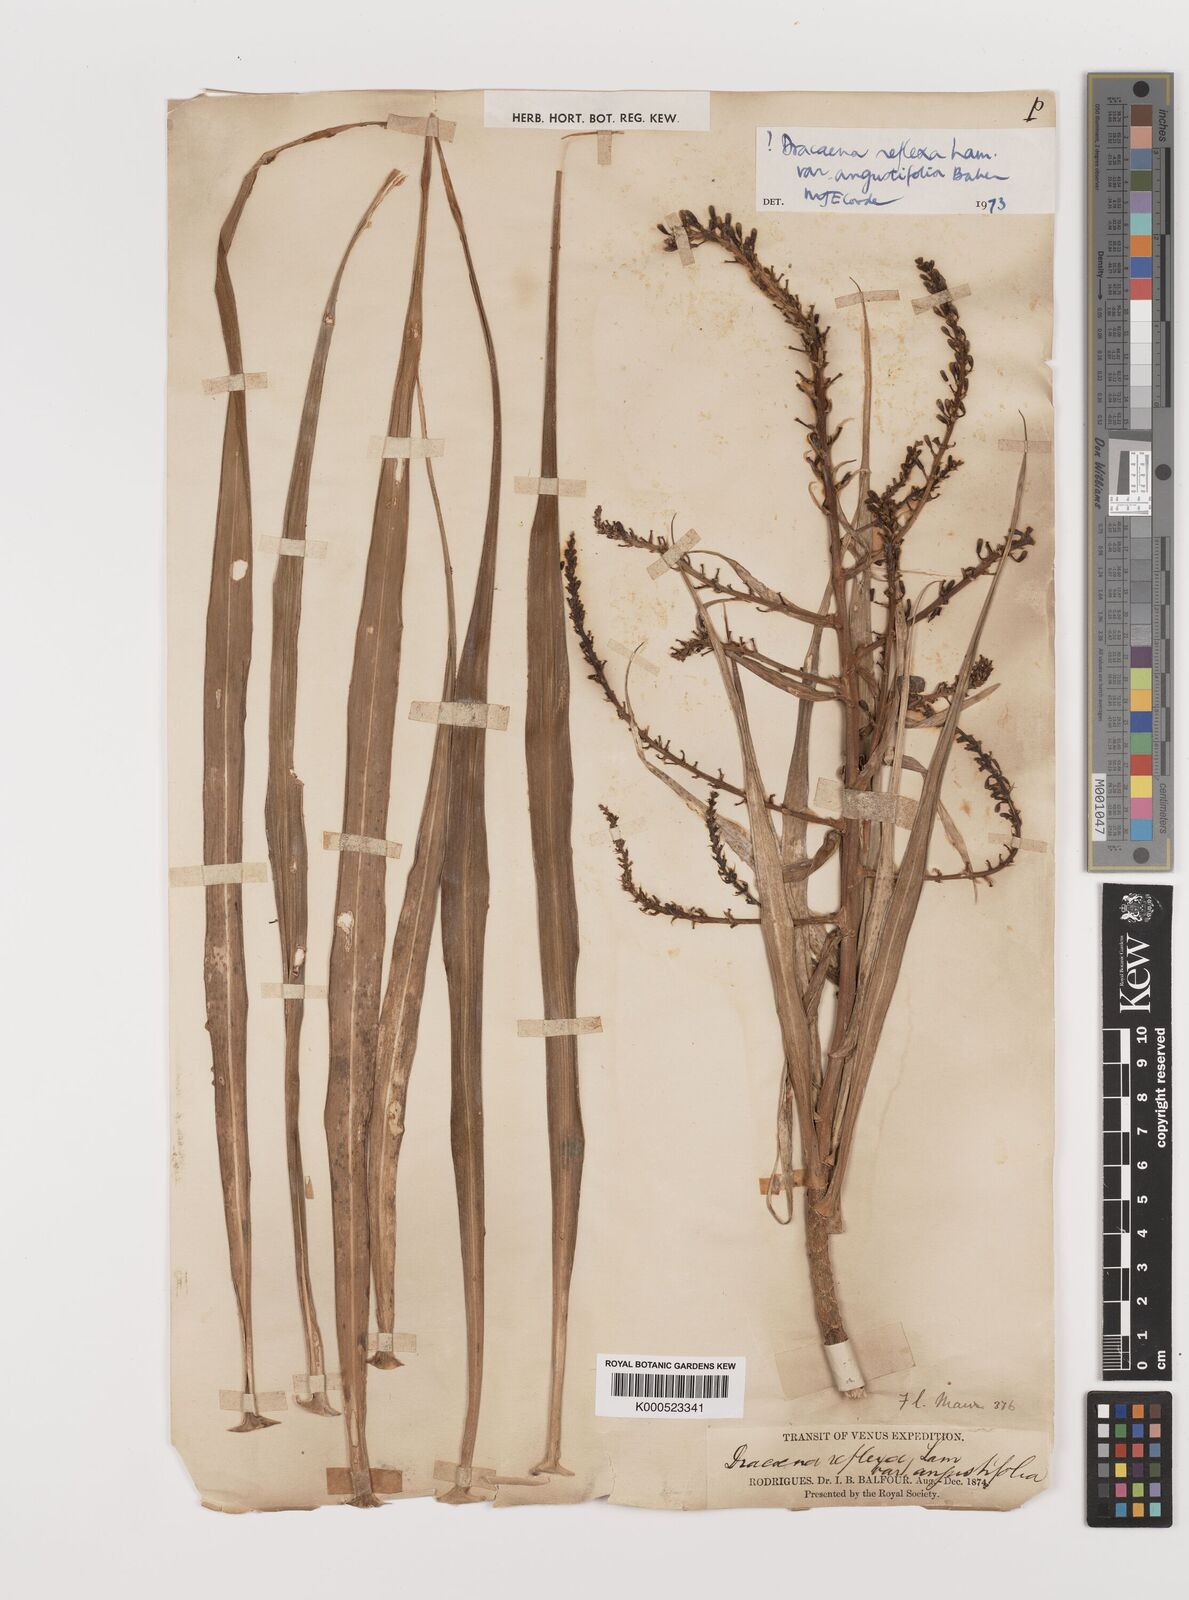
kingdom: Plantae
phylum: Tracheophyta
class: Liliopsida
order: Asparagales
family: Asparagaceae
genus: Dracaena
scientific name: Dracaena reflexa
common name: Song-of-india
